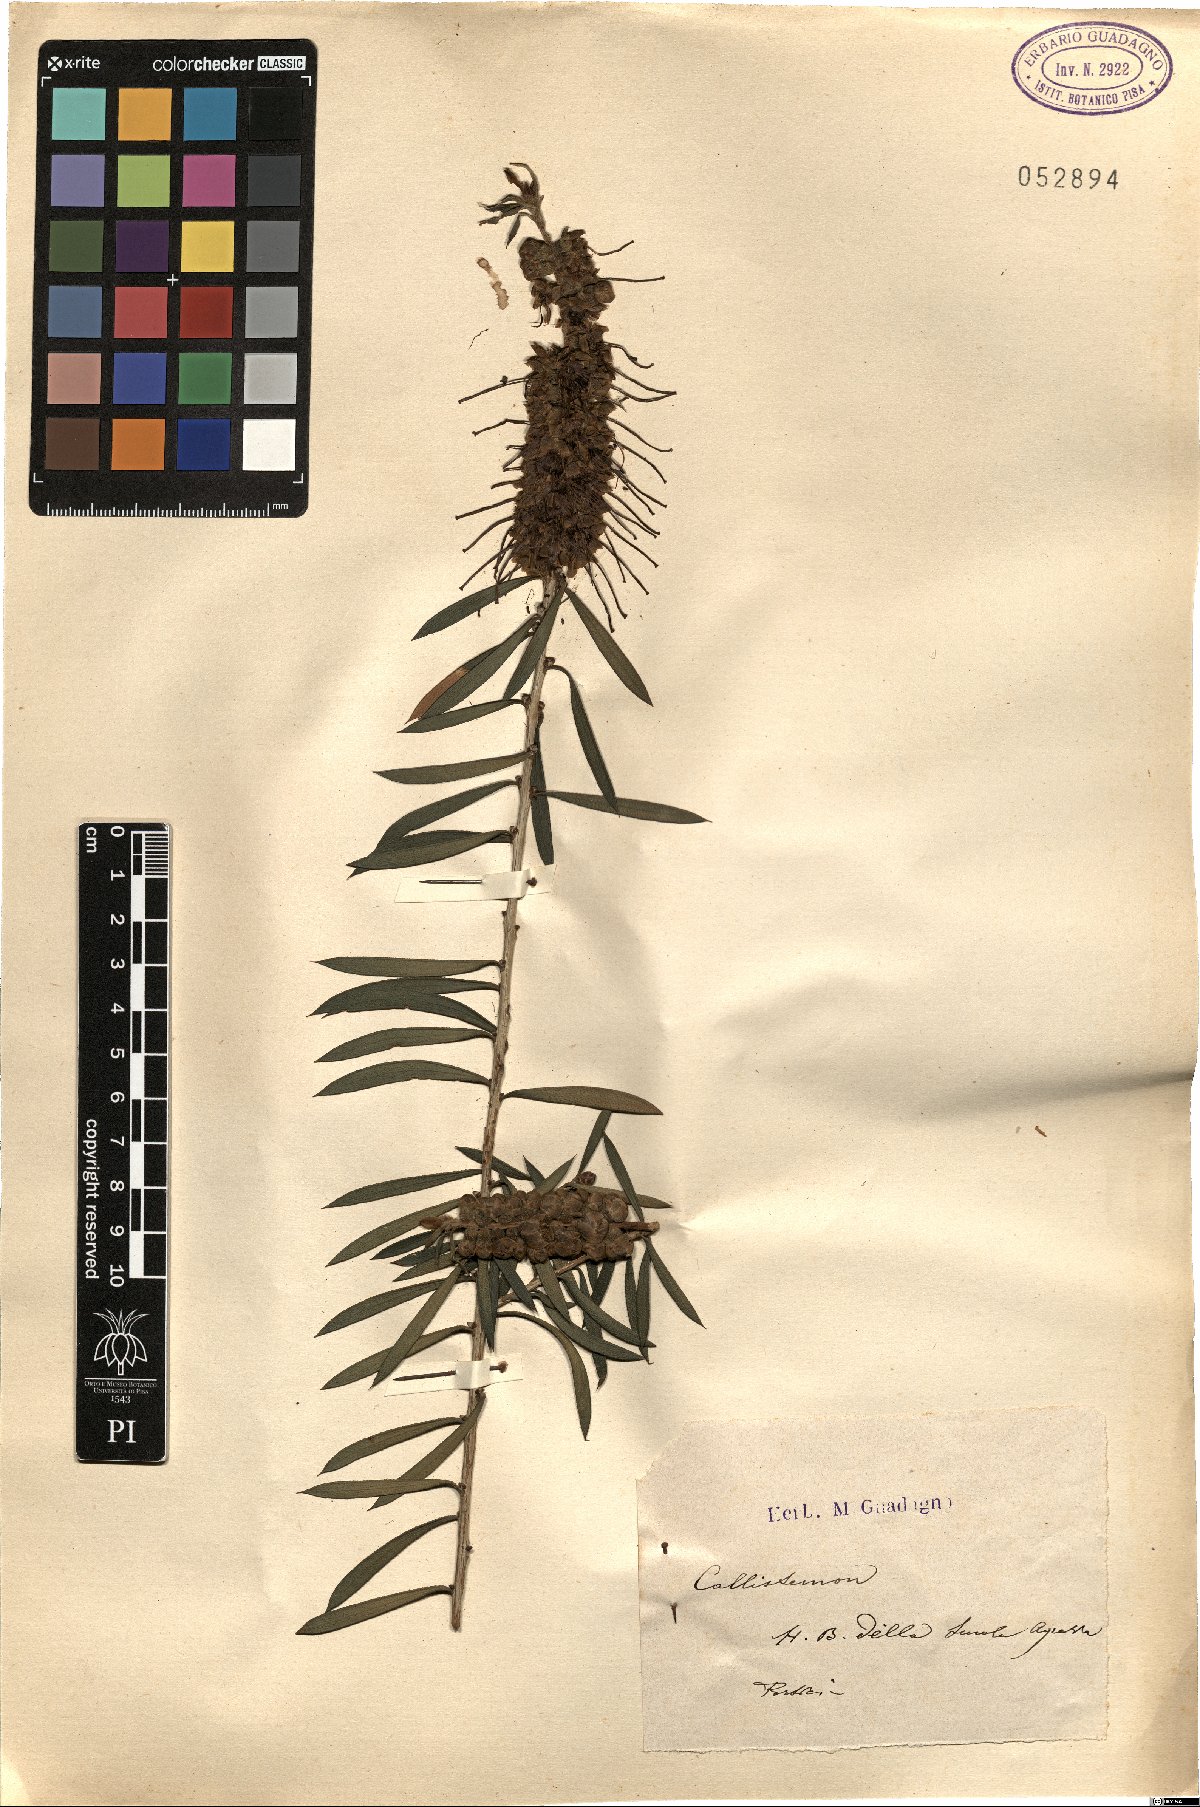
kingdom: Plantae
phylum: Tracheophyta
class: Magnoliopsida
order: Myrtales
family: Myrtaceae
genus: Callistemon
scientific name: Callistemon
